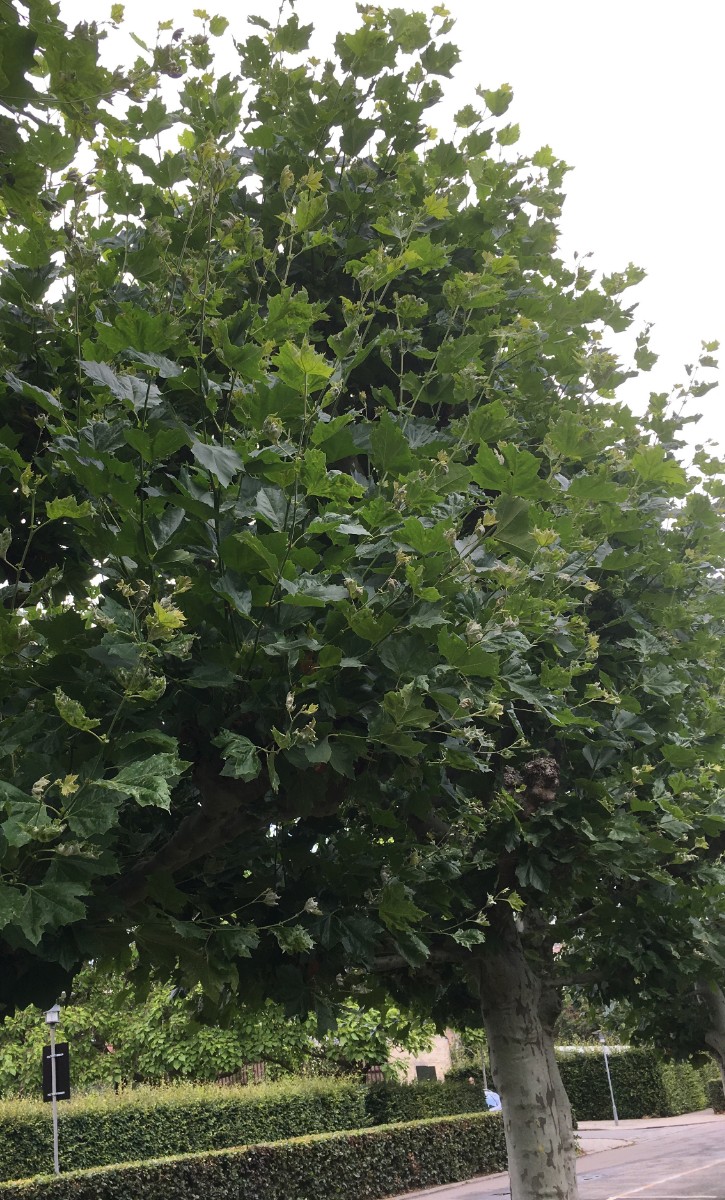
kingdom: Fungi
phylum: Ascomycota
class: Leotiomycetes
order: Helotiales
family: Erysiphaceae
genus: Erysiphe
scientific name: Erysiphe platani
